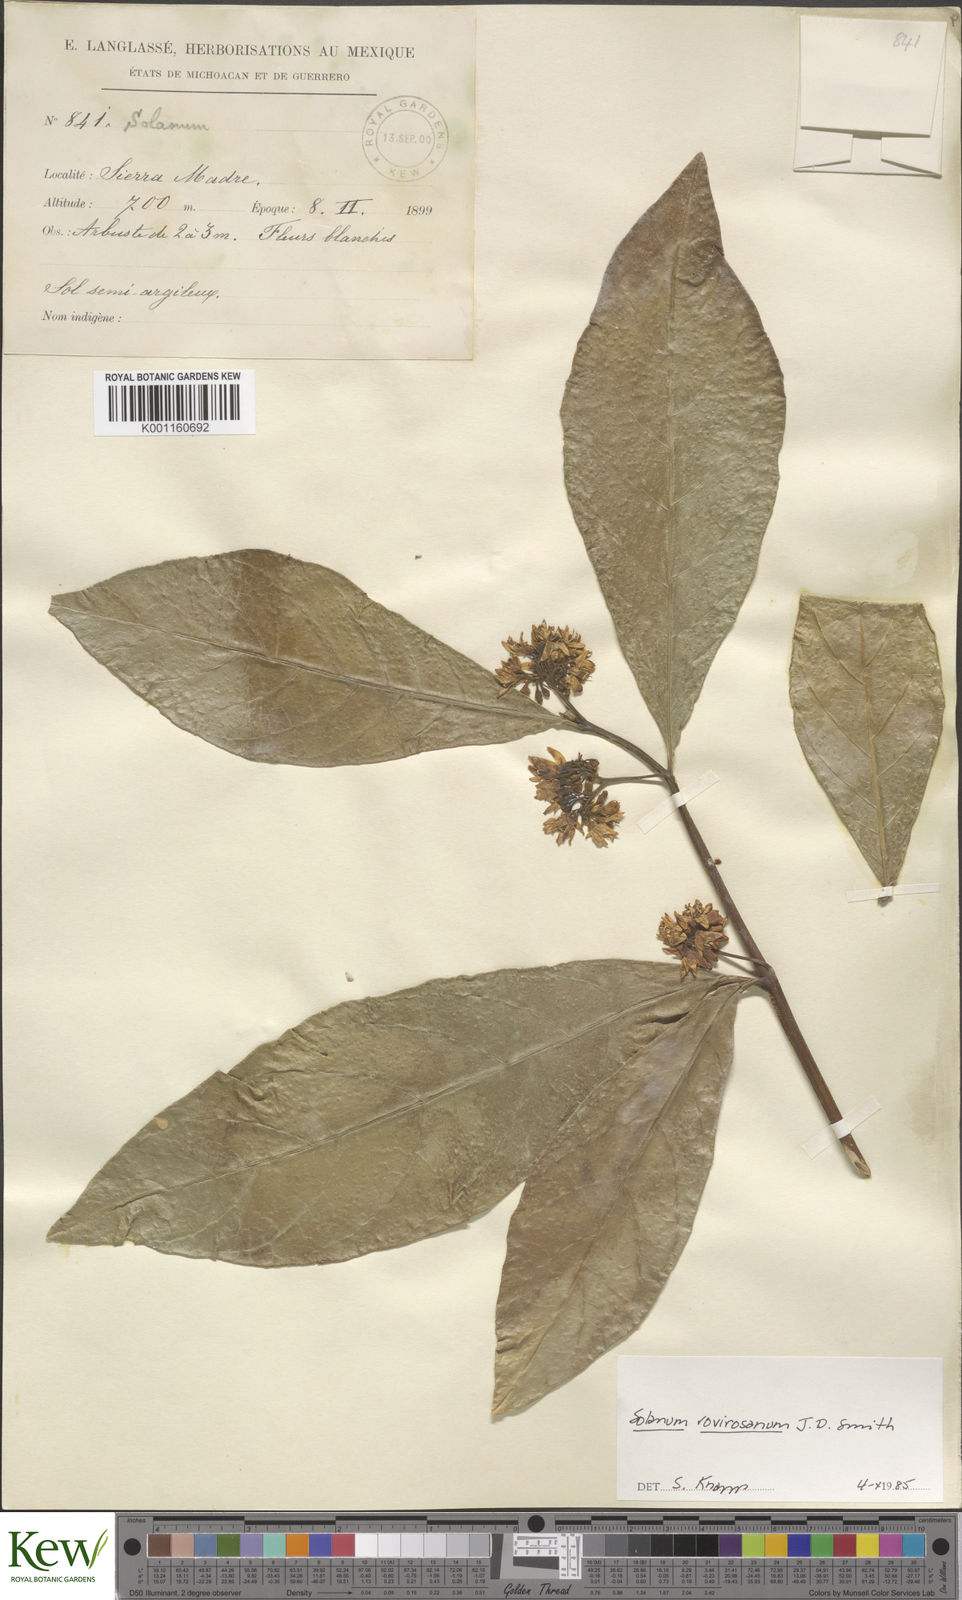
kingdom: Plantae
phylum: Tracheophyta
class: Magnoliopsida
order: Solanales
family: Solanaceae
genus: Solanum
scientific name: Solanum rovirosanum
